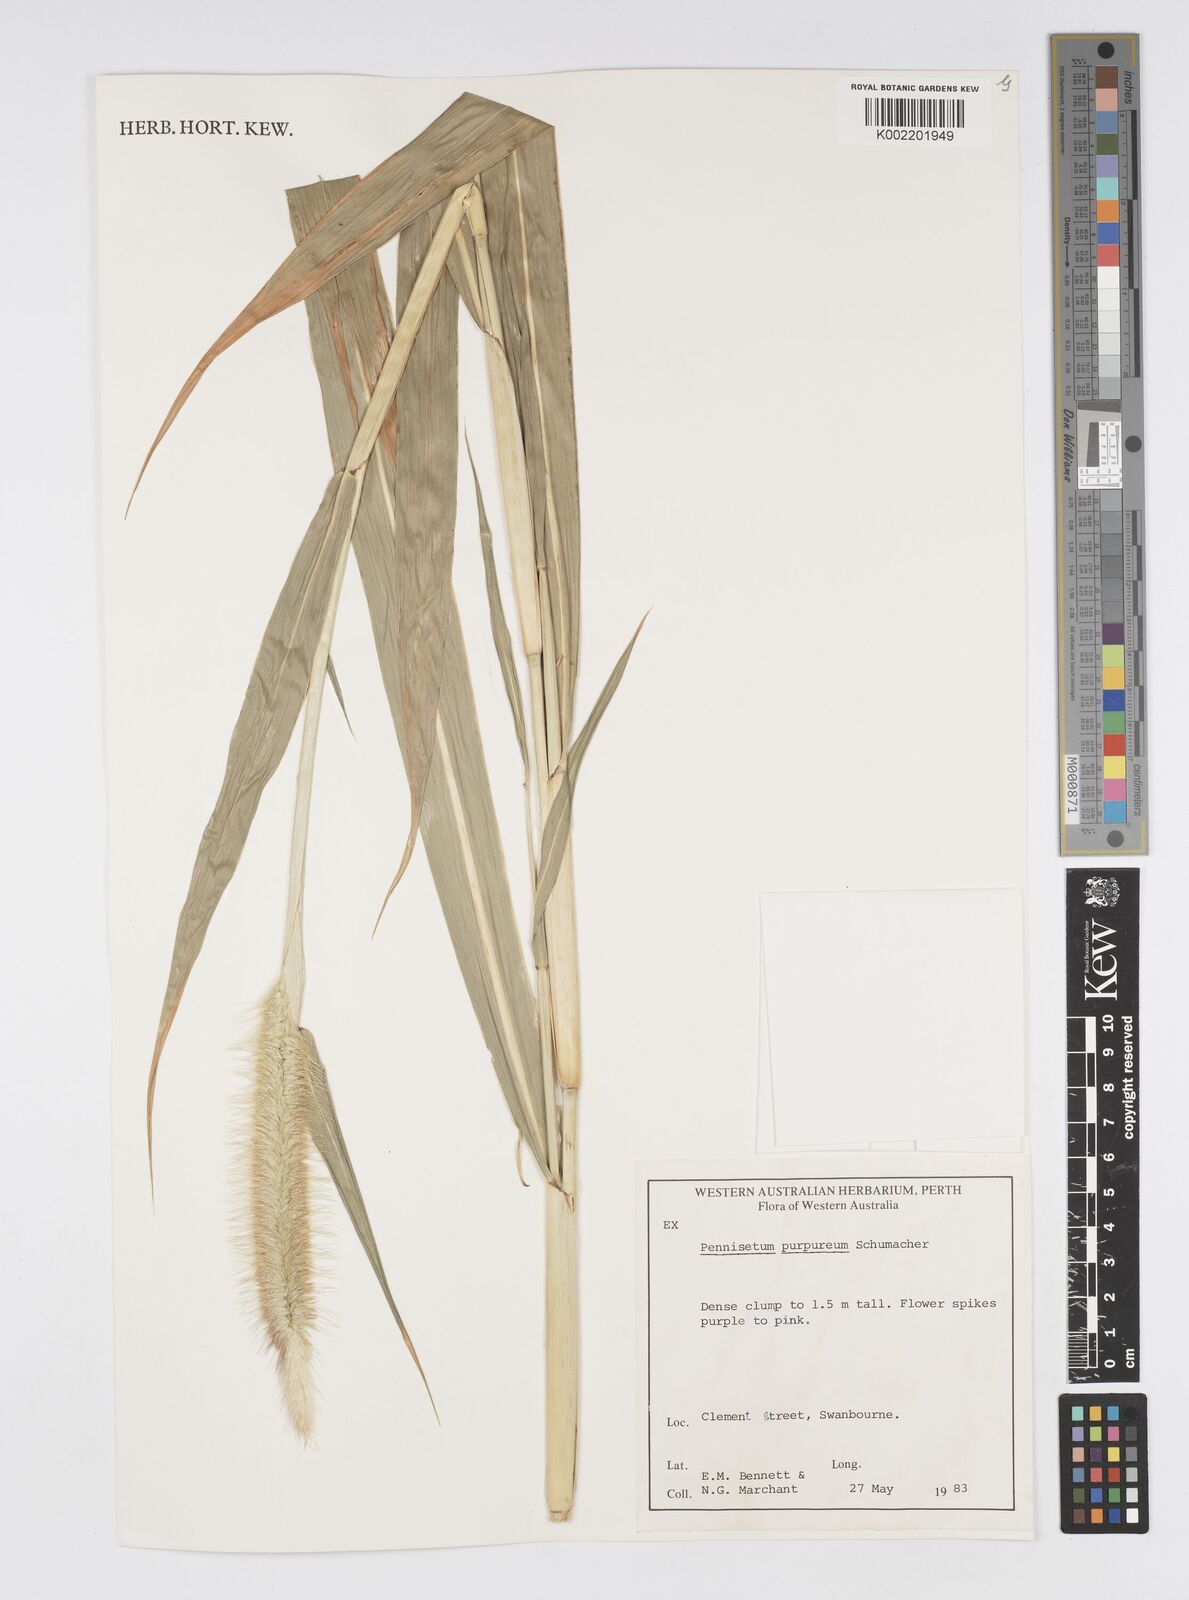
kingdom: Plantae
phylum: Tracheophyta
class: Liliopsida
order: Poales
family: Poaceae
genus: Cenchrus
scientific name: Cenchrus purpureus
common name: Elephant grass
